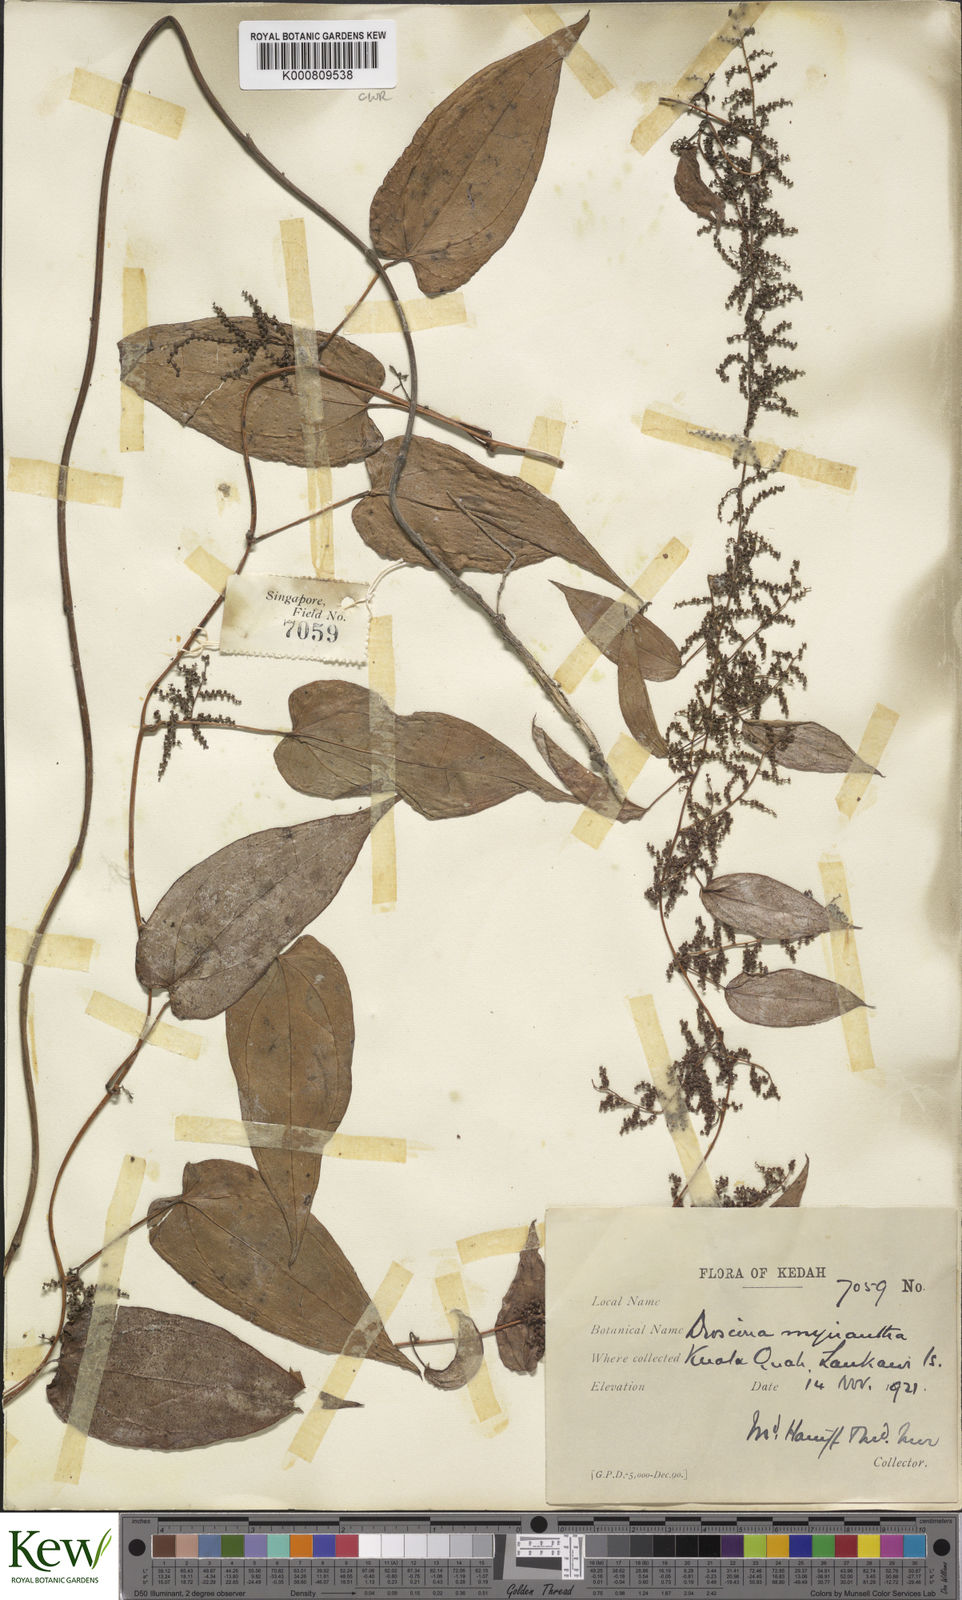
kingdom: Plantae
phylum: Tracheophyta
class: Liliopsida
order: Dioscoreales
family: Dioscoreaceae
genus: Dioscorea
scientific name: Dioscorea filiformis
